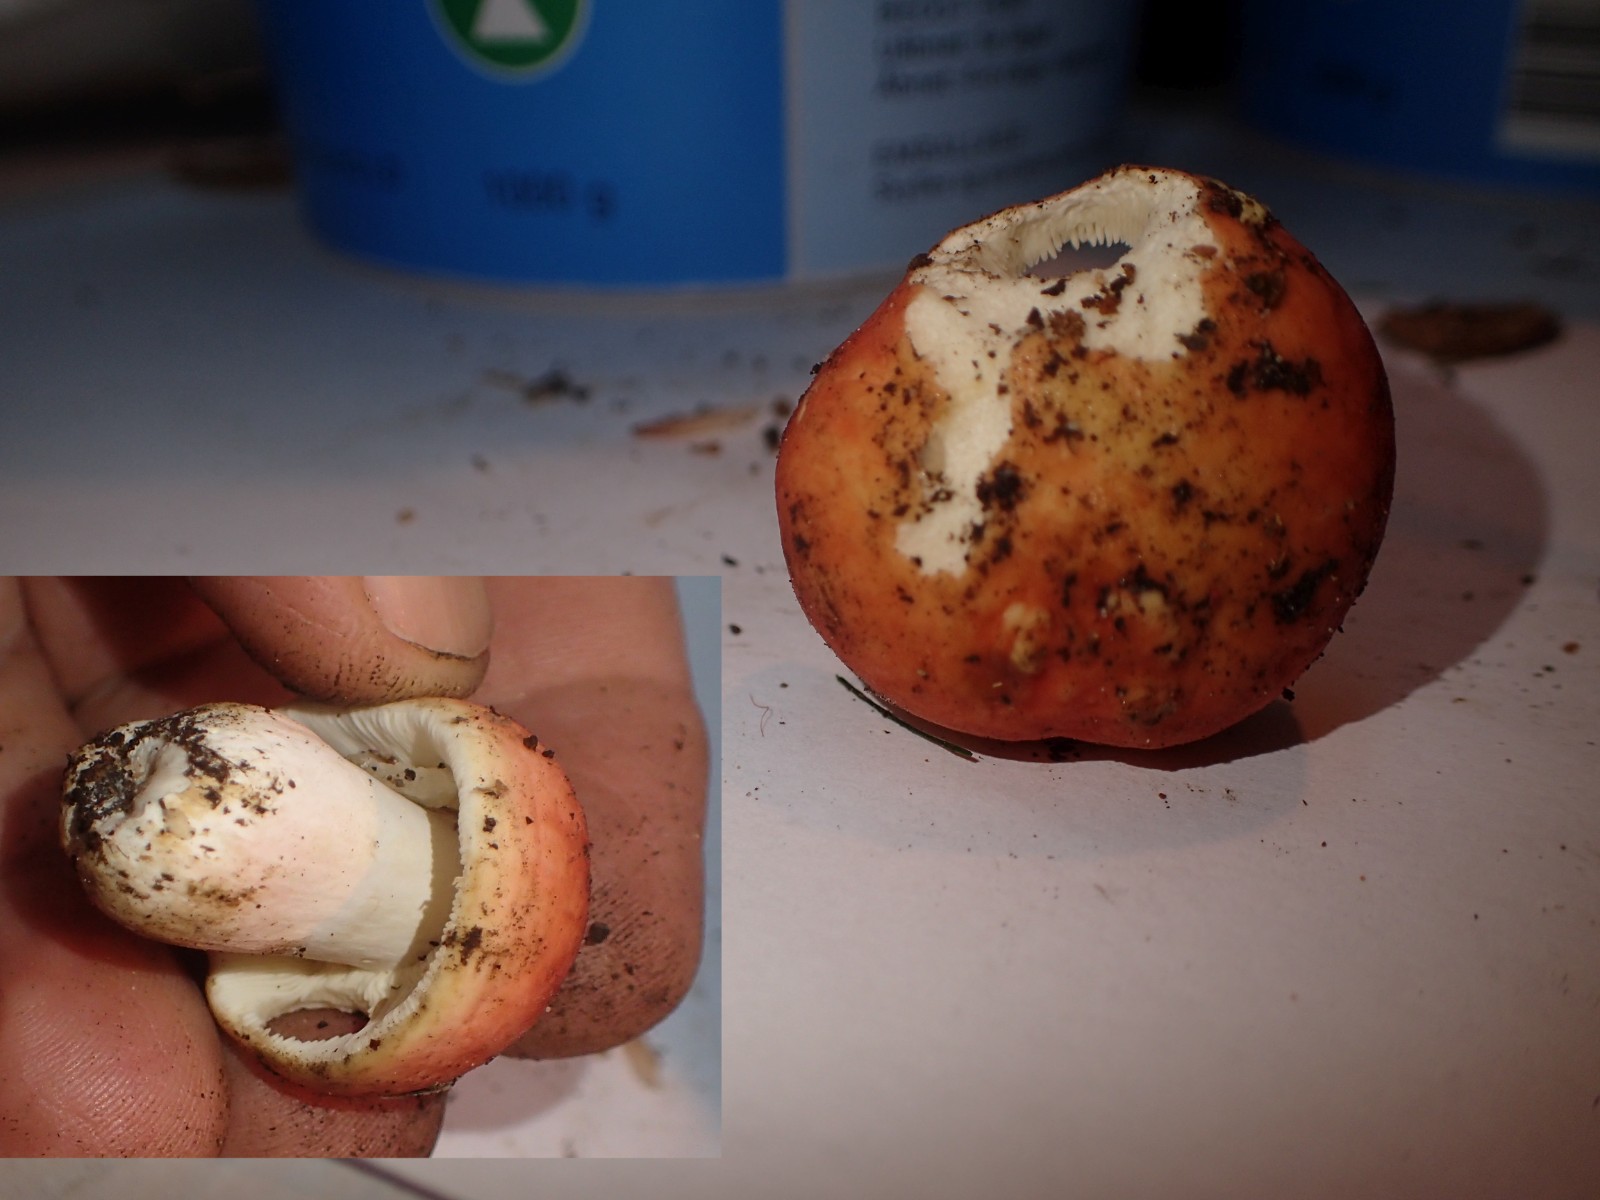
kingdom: Fungi
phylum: Basidiomycota
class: Agaricomycetes
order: Russulales
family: Russulaceae
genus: Russula
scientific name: Russula violeipes
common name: ferskengul skørhat
